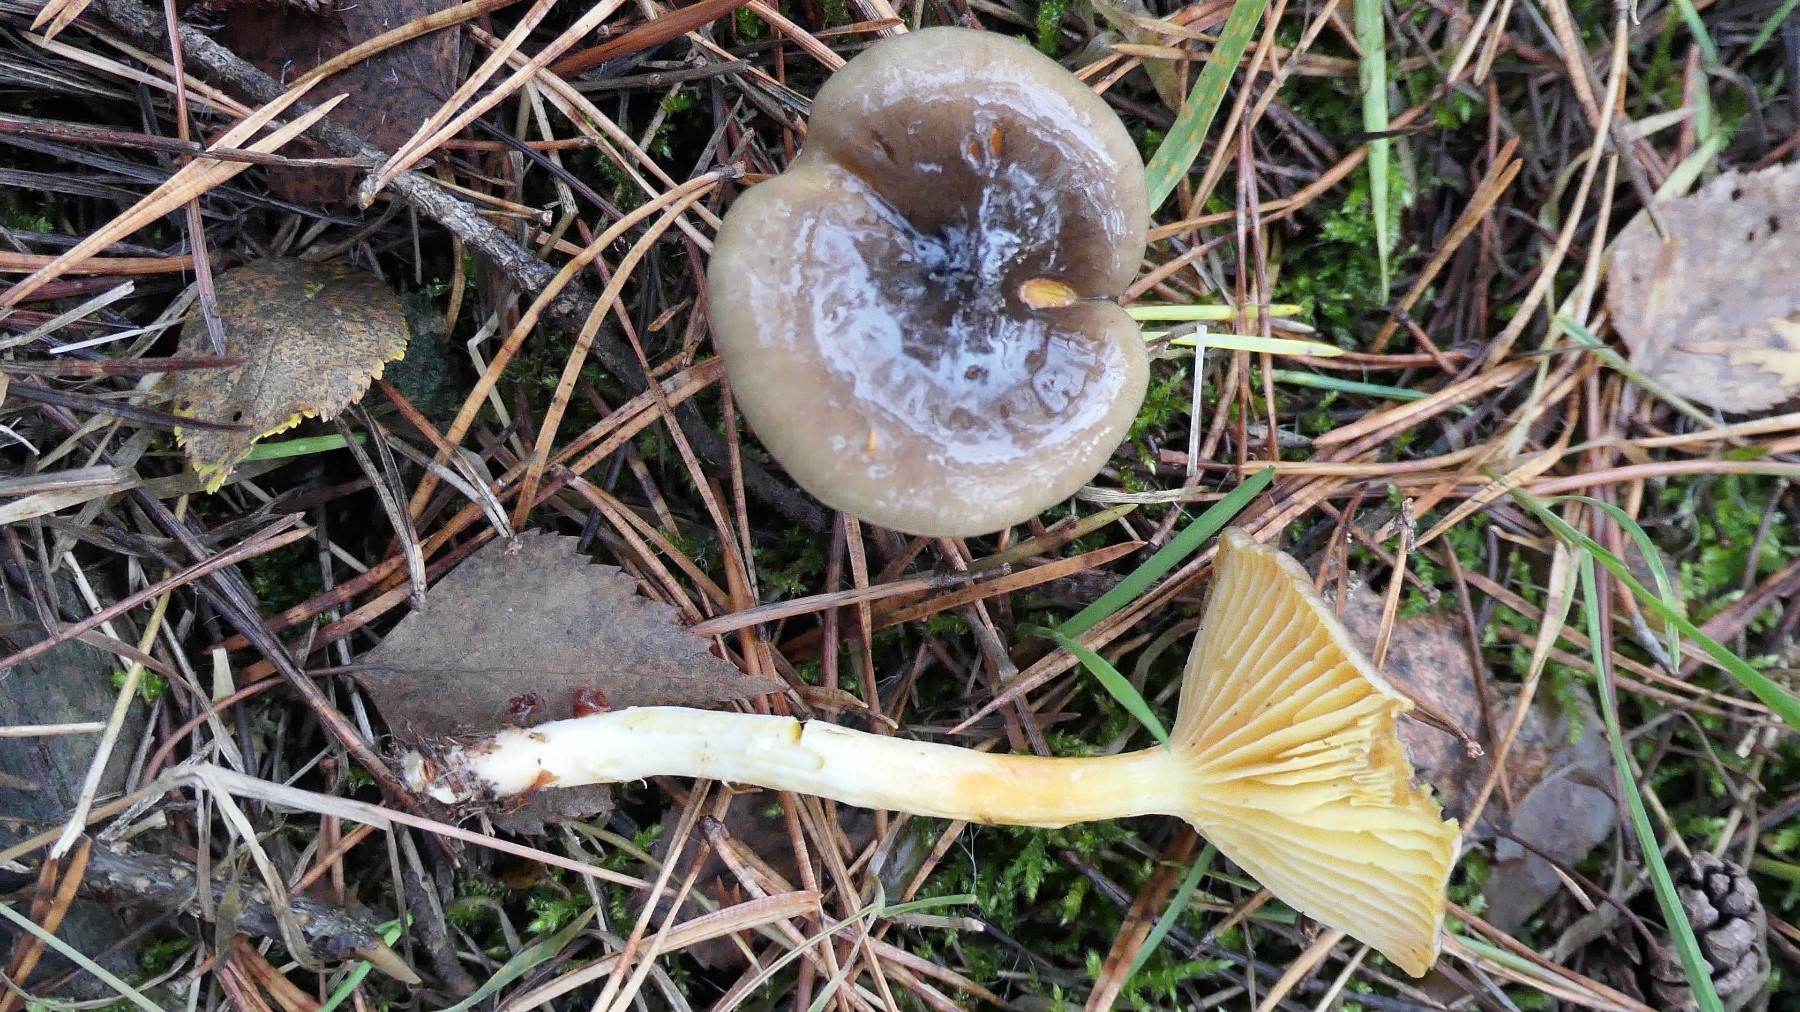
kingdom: Fungi
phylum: Basidiomycota
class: Agaricomycetes
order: Agaricales
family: Hygrophoraceae
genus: Hygrophorus
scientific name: Hygrophorus hypothejus
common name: frost-sneglehat
